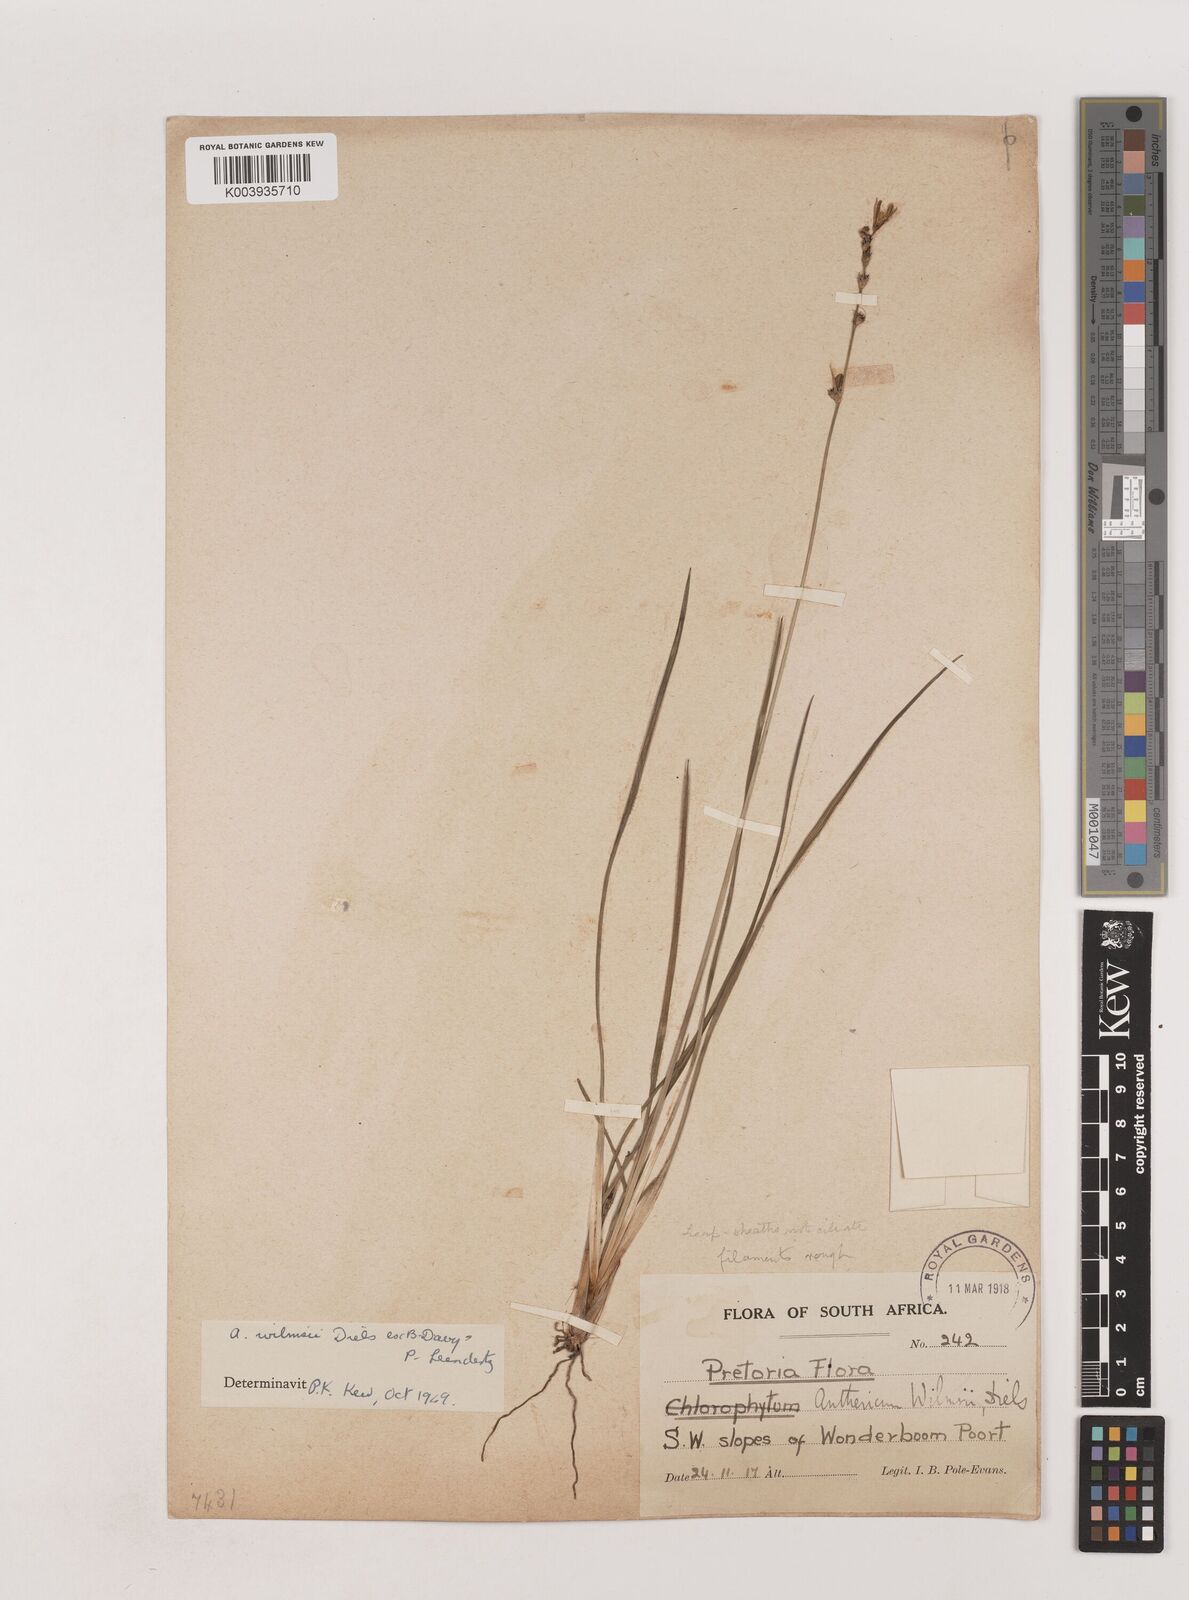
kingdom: Plantae
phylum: Tracheophyta
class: Liliopsida
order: Asparagales
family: Asparagaceae
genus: Chlorophytum
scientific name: Chlorophytum fasciculatum
